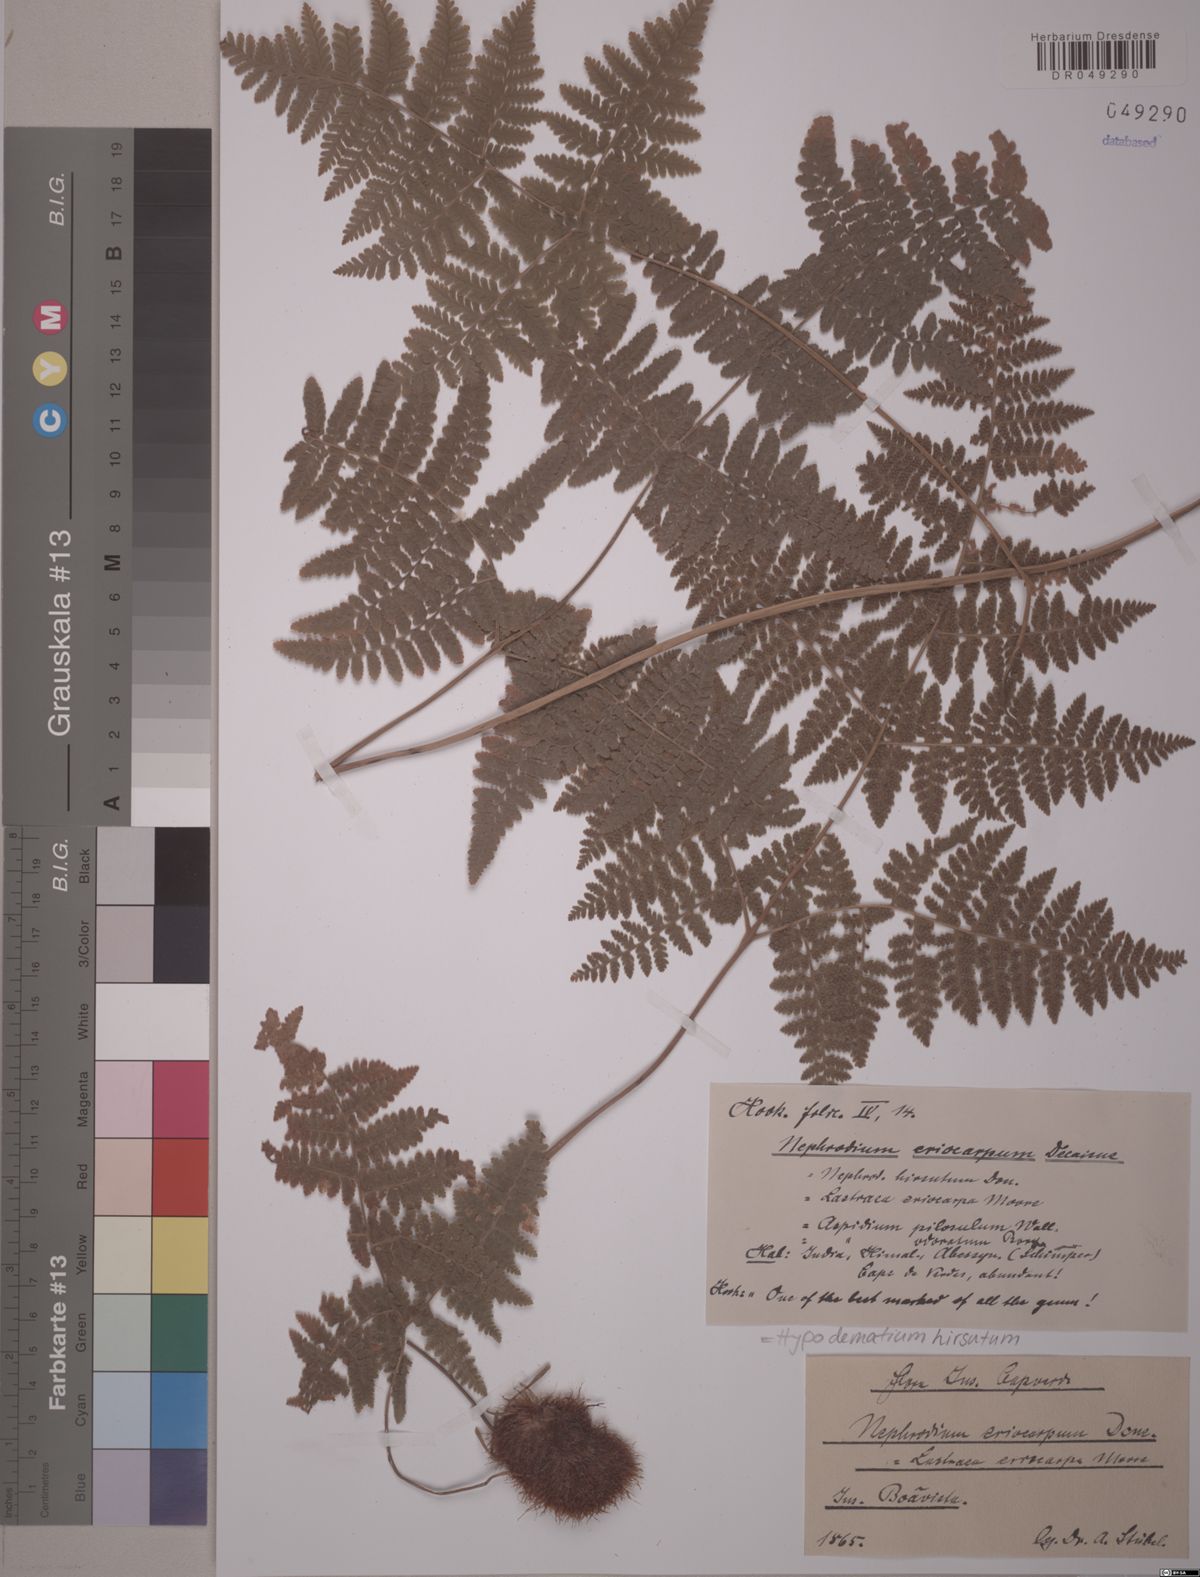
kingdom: Plantae
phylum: Tracheophyta
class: Polypodiopsida
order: Polypodiales
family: Hypodematiaceae
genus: Hypodematium
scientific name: Hypodematium hirsutum
